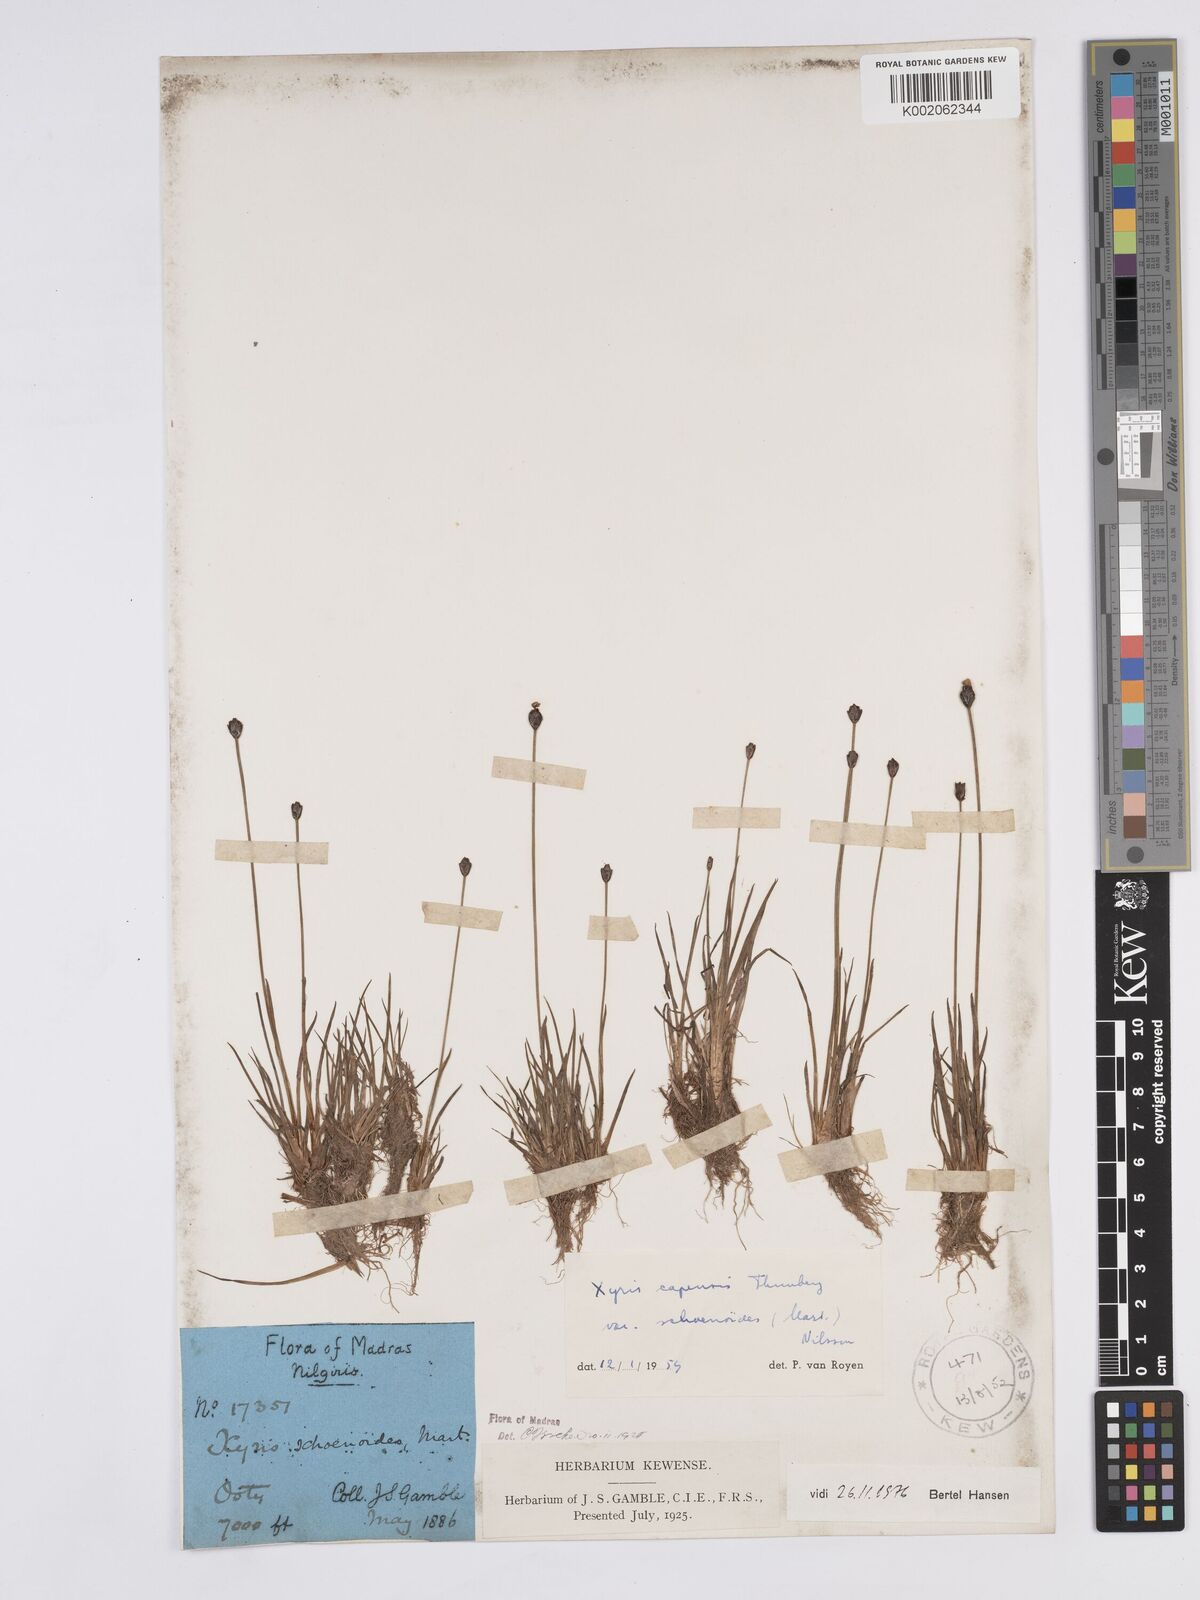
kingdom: Plantae
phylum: Tracheophyta
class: Liliopsida
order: Poales
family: Xyridaceae
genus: Xyris
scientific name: Xyris capensis
